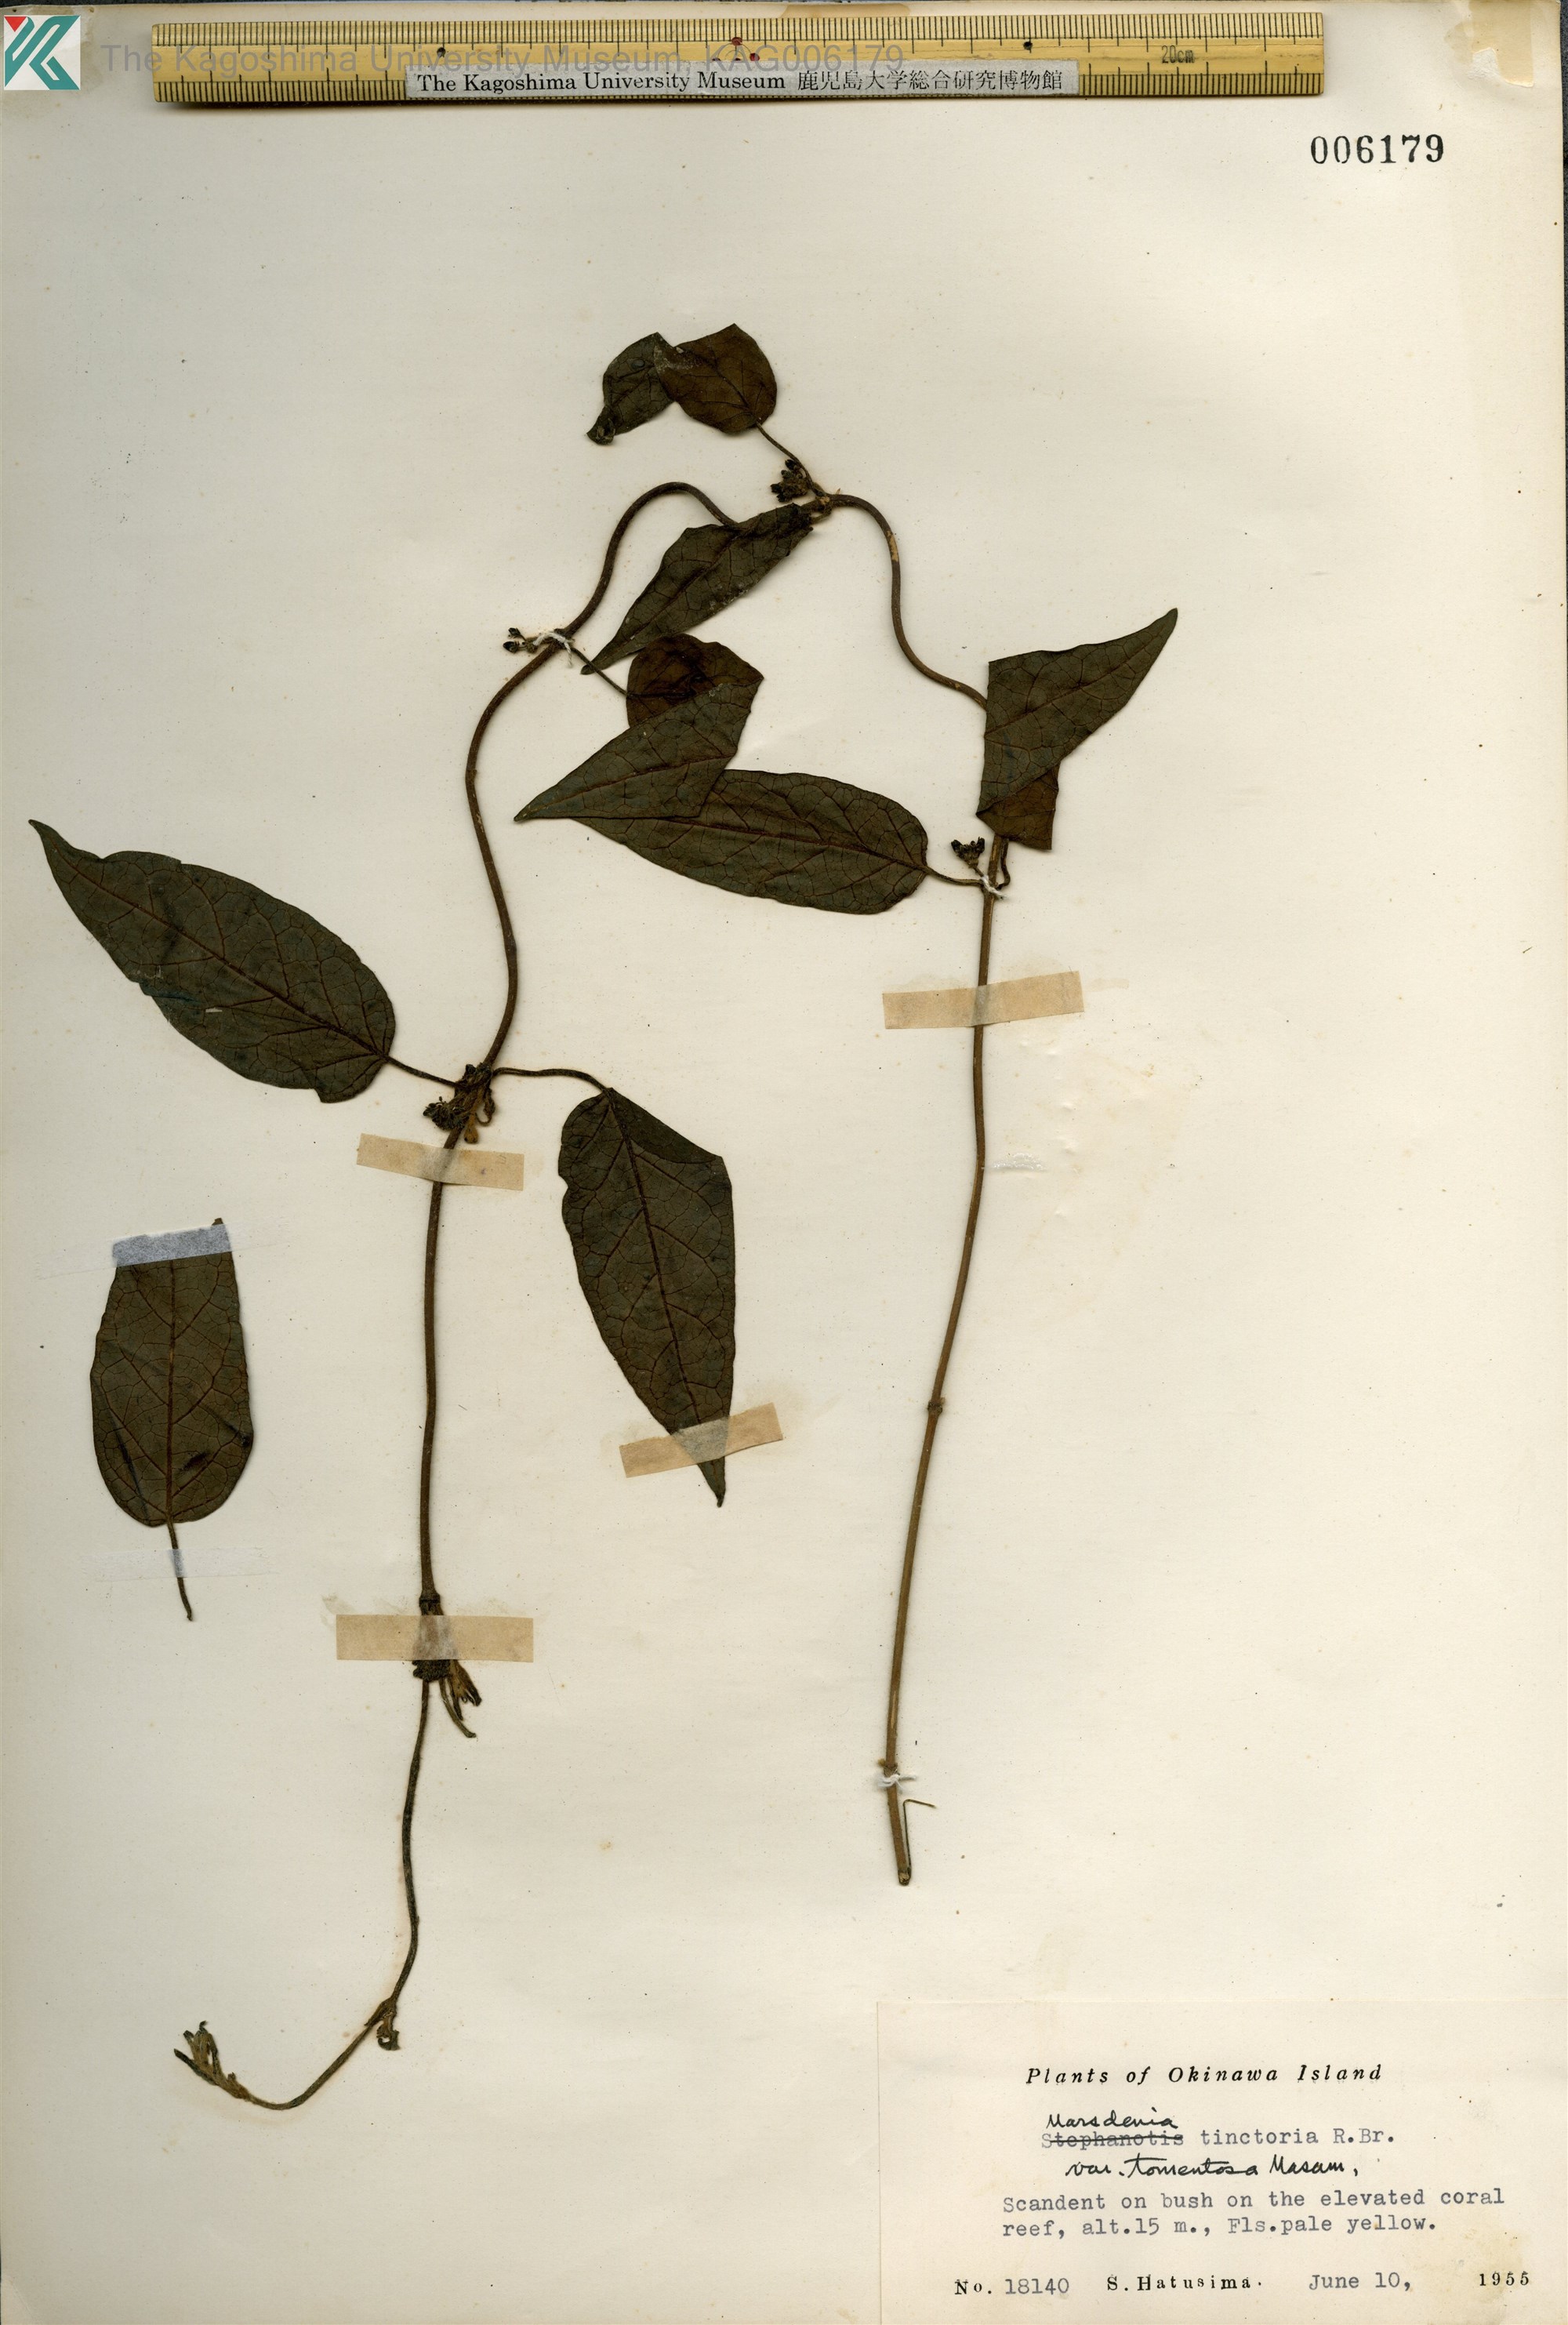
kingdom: Plantae
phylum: Tracheophyta
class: Magnoliopsida
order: Gentianales
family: Apocynaceae
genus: Marsdenia
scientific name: Marsdenia tinctoria
